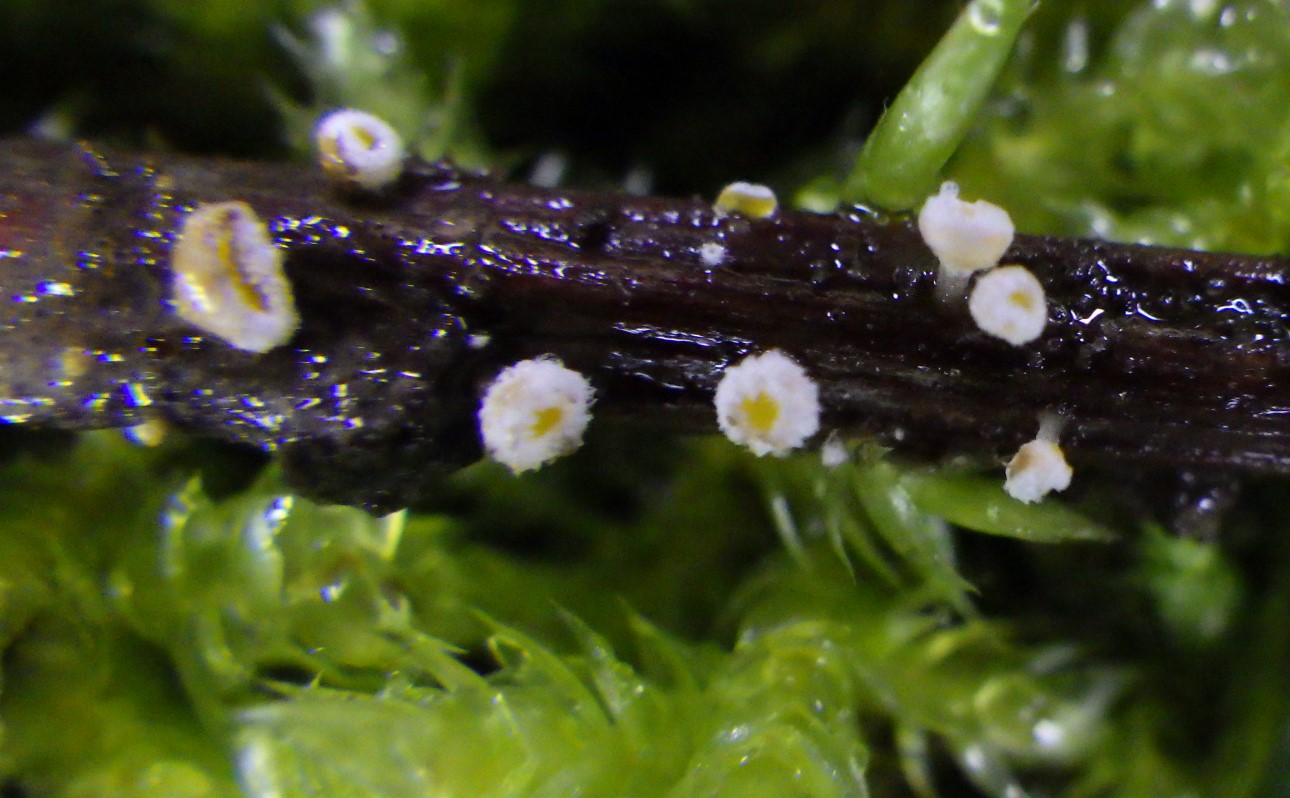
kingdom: Fungi
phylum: Ascomycota
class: Leotiomycetes
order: Helotiales
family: Lachnaceae
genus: Capitotricha
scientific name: Capitotricha bicolor
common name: prægtig frynseskive
